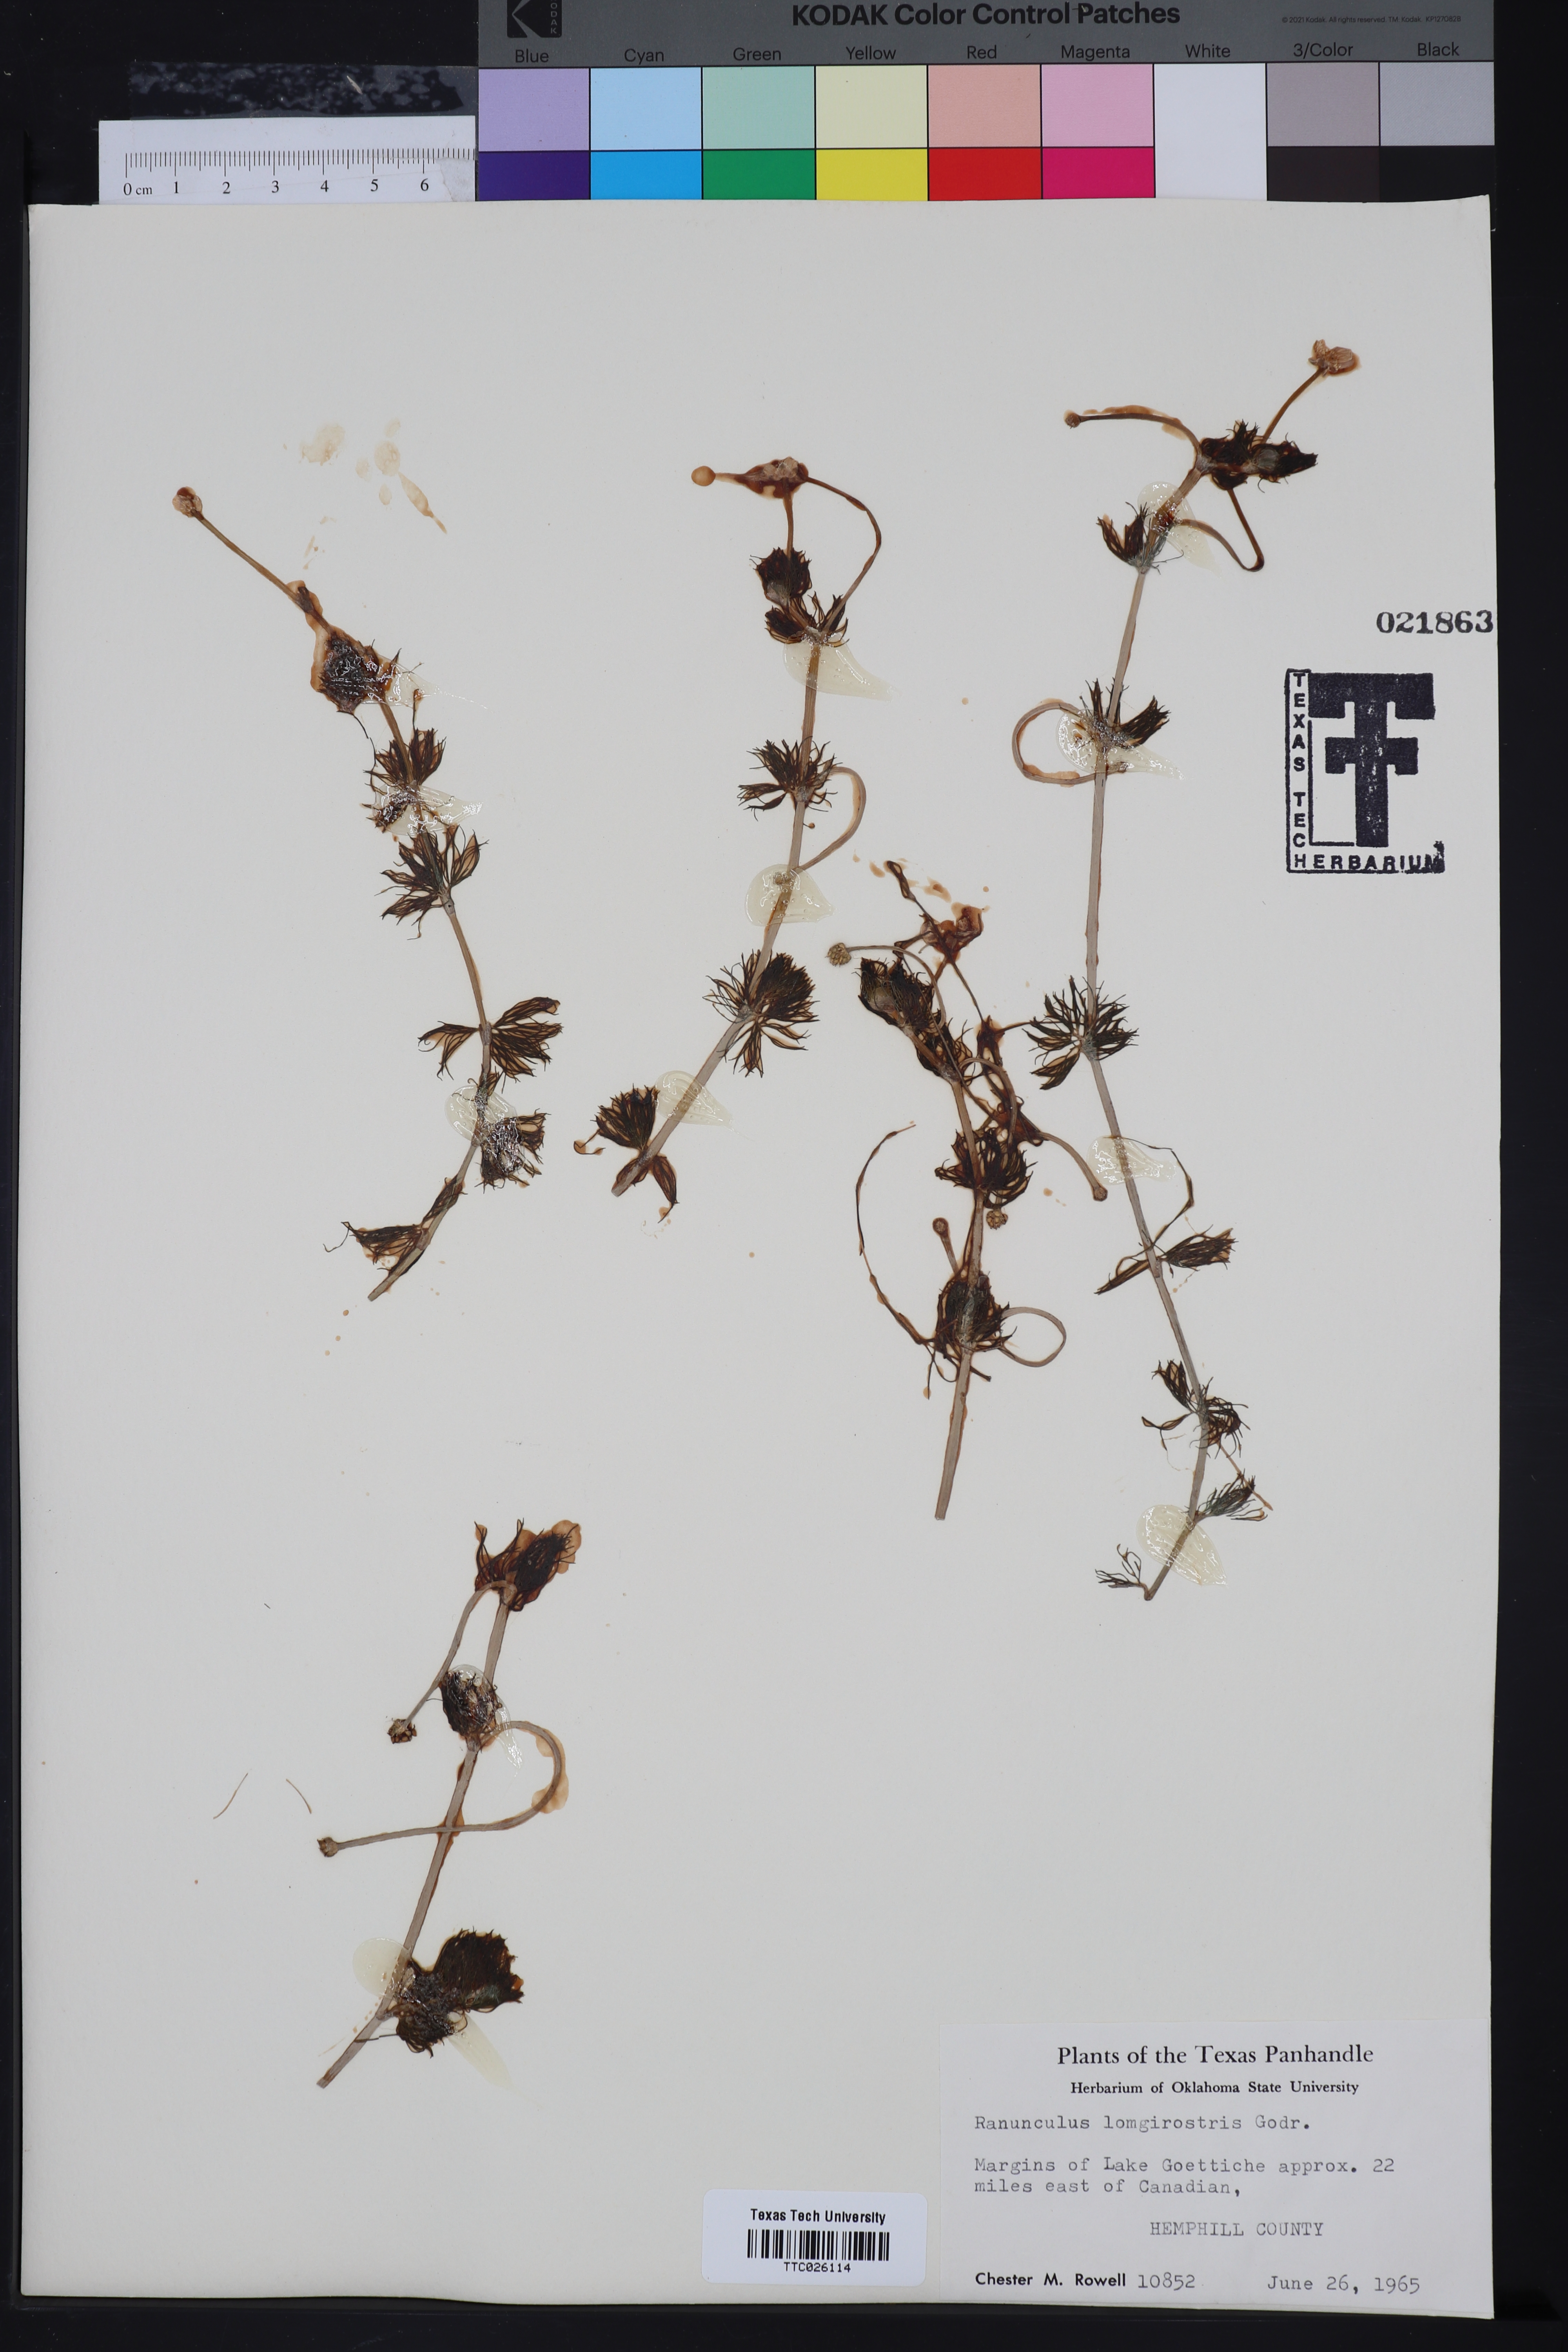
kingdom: Plantae
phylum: Tracheophyta
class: Magnoliopsida
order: Ranunculales
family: Ranunculaceae
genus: Ranunculus
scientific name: Ranunculus longirostris
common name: Curly white water-crowfoot
